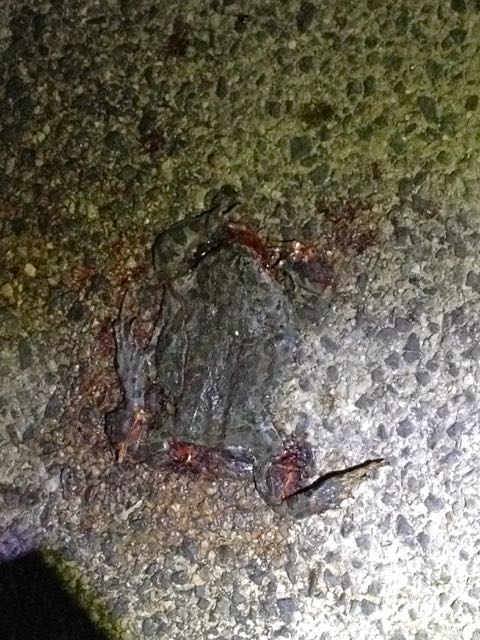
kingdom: Animalia
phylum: Chordata
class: Amphibia
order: Anura
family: Bufonidae
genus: Bufotes
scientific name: Bufotes viridis
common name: European green toad
